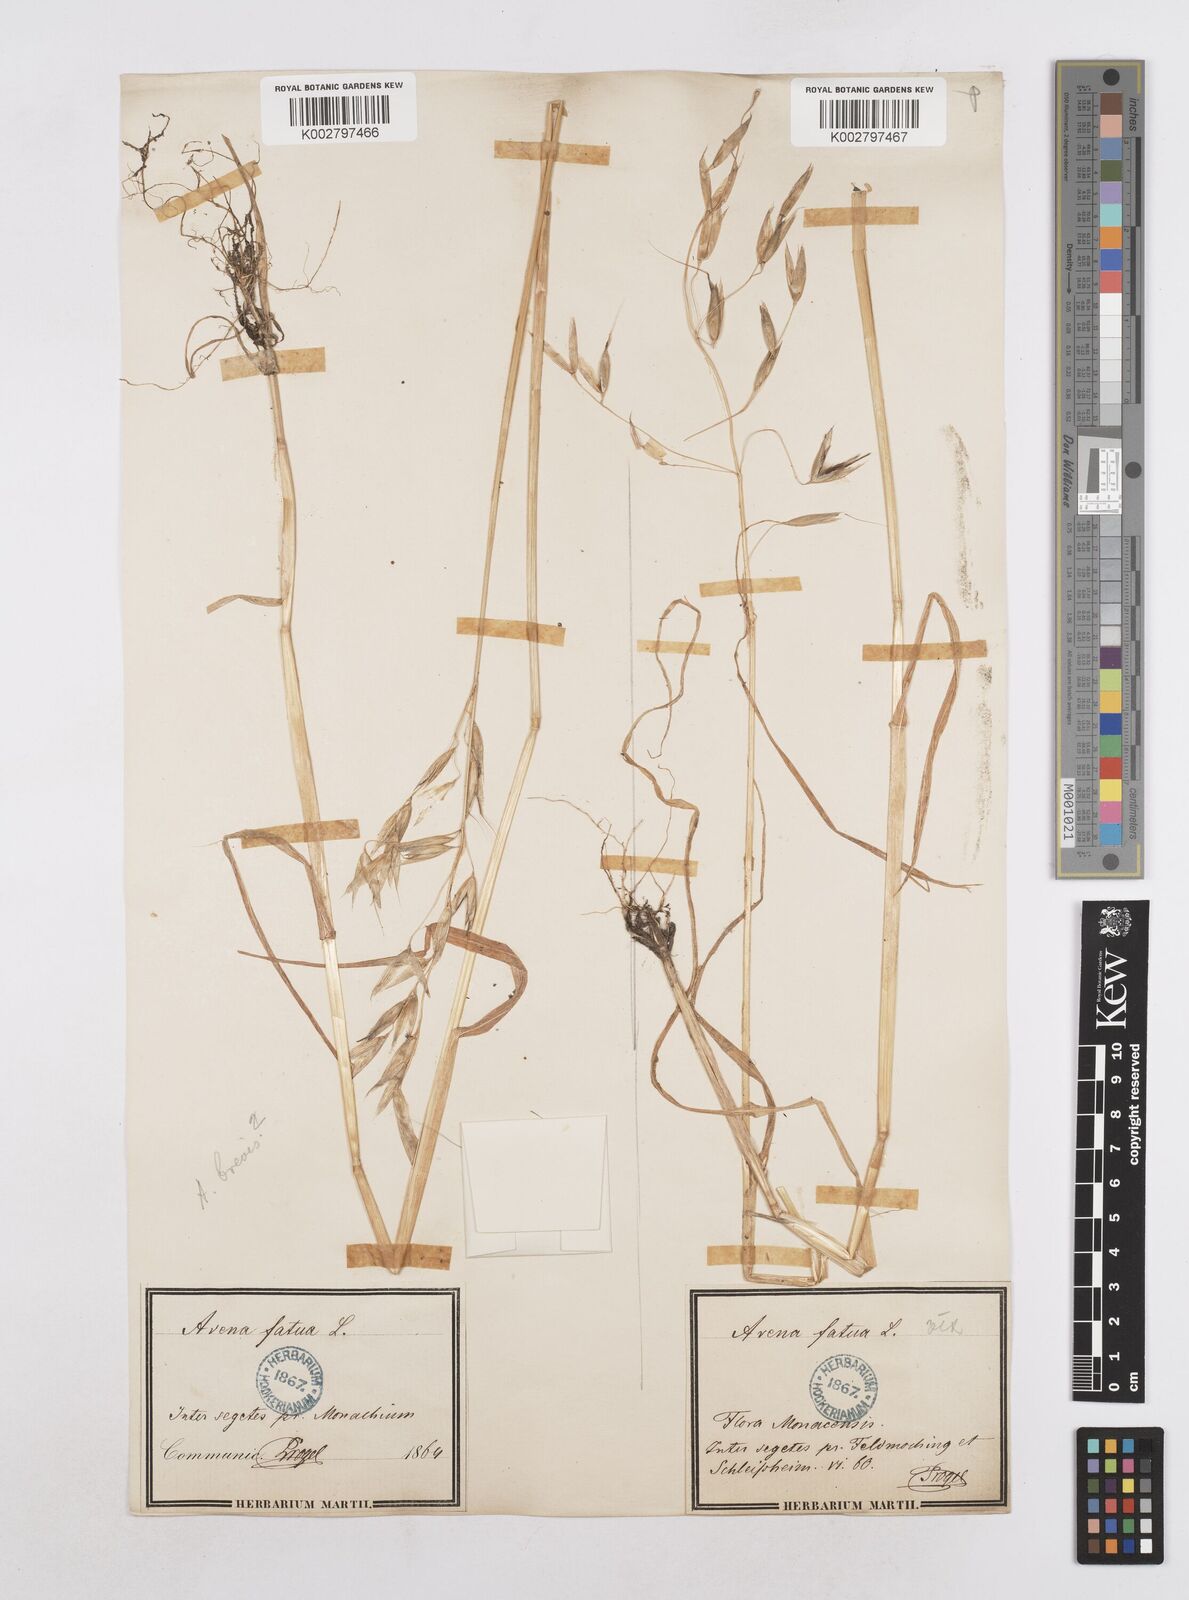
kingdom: Plantae
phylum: Tracheophyta
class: Liliopsida
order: Poales
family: Poaceae
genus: Avena
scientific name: Avena fatua
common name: Wild oat
